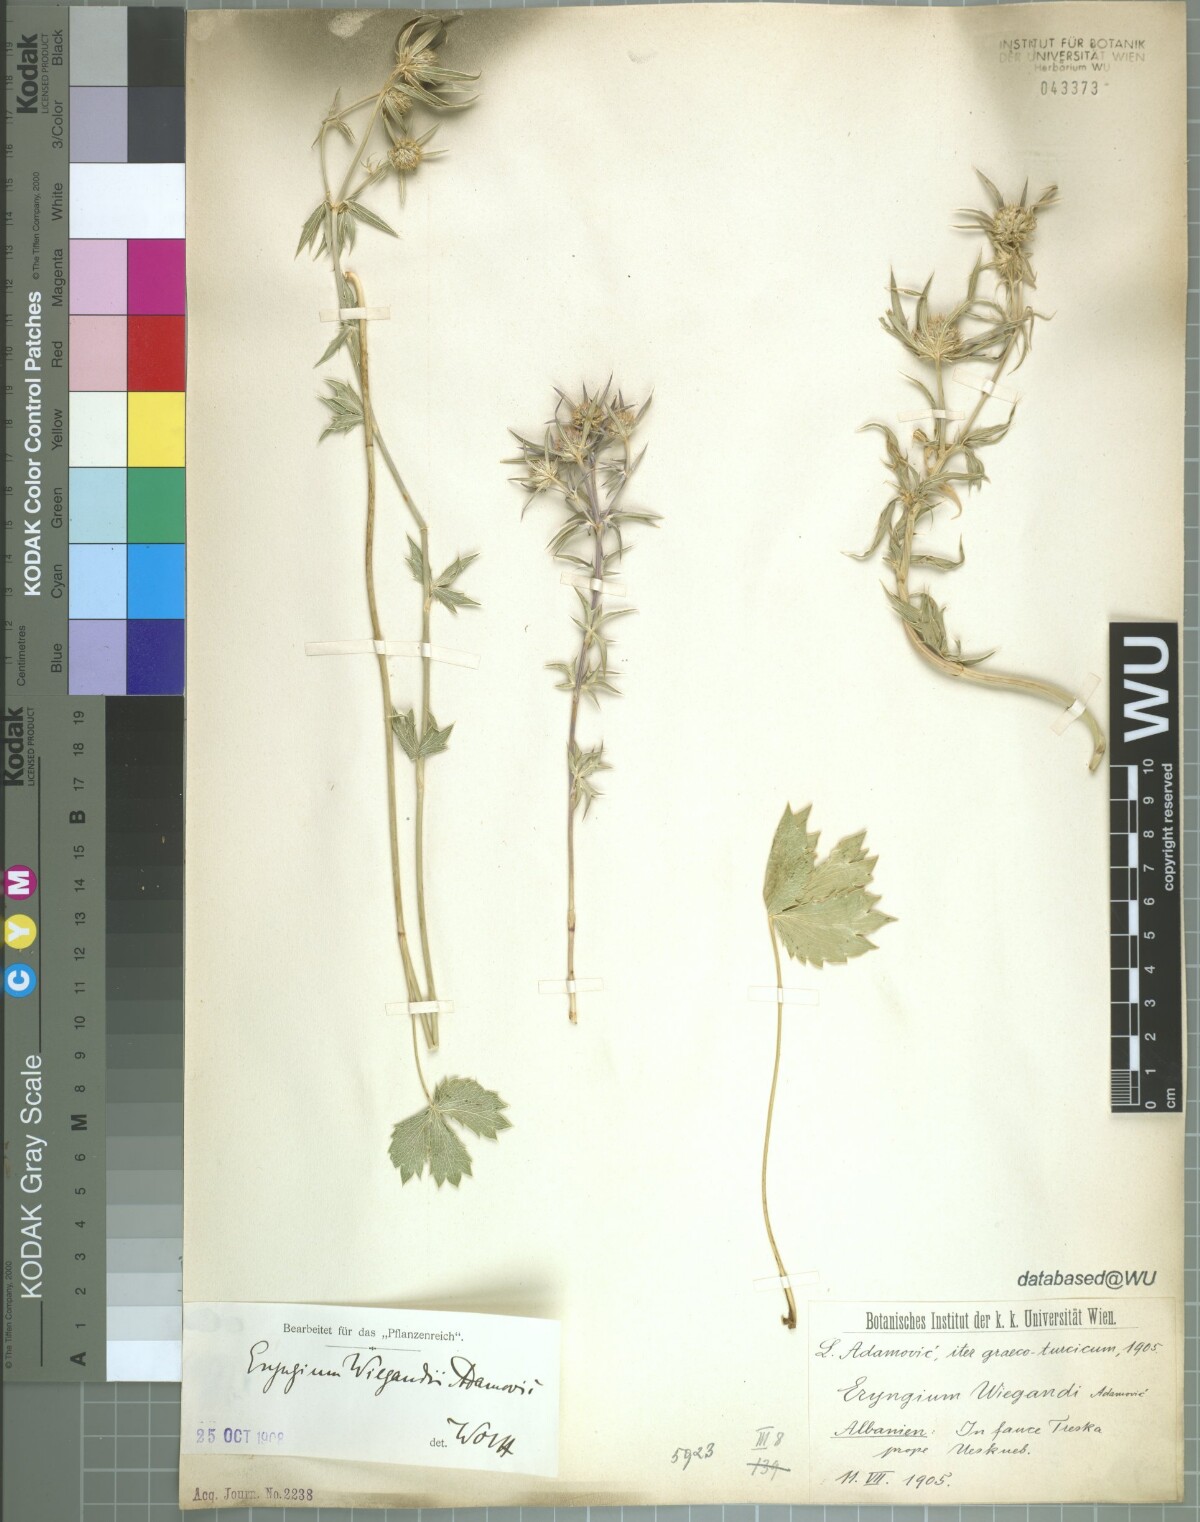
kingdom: Plantae
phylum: Tracheophyta
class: Magnoliopsida
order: Apiales
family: Apiaceae
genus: Eryngium
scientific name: Eryngium wiegandii
